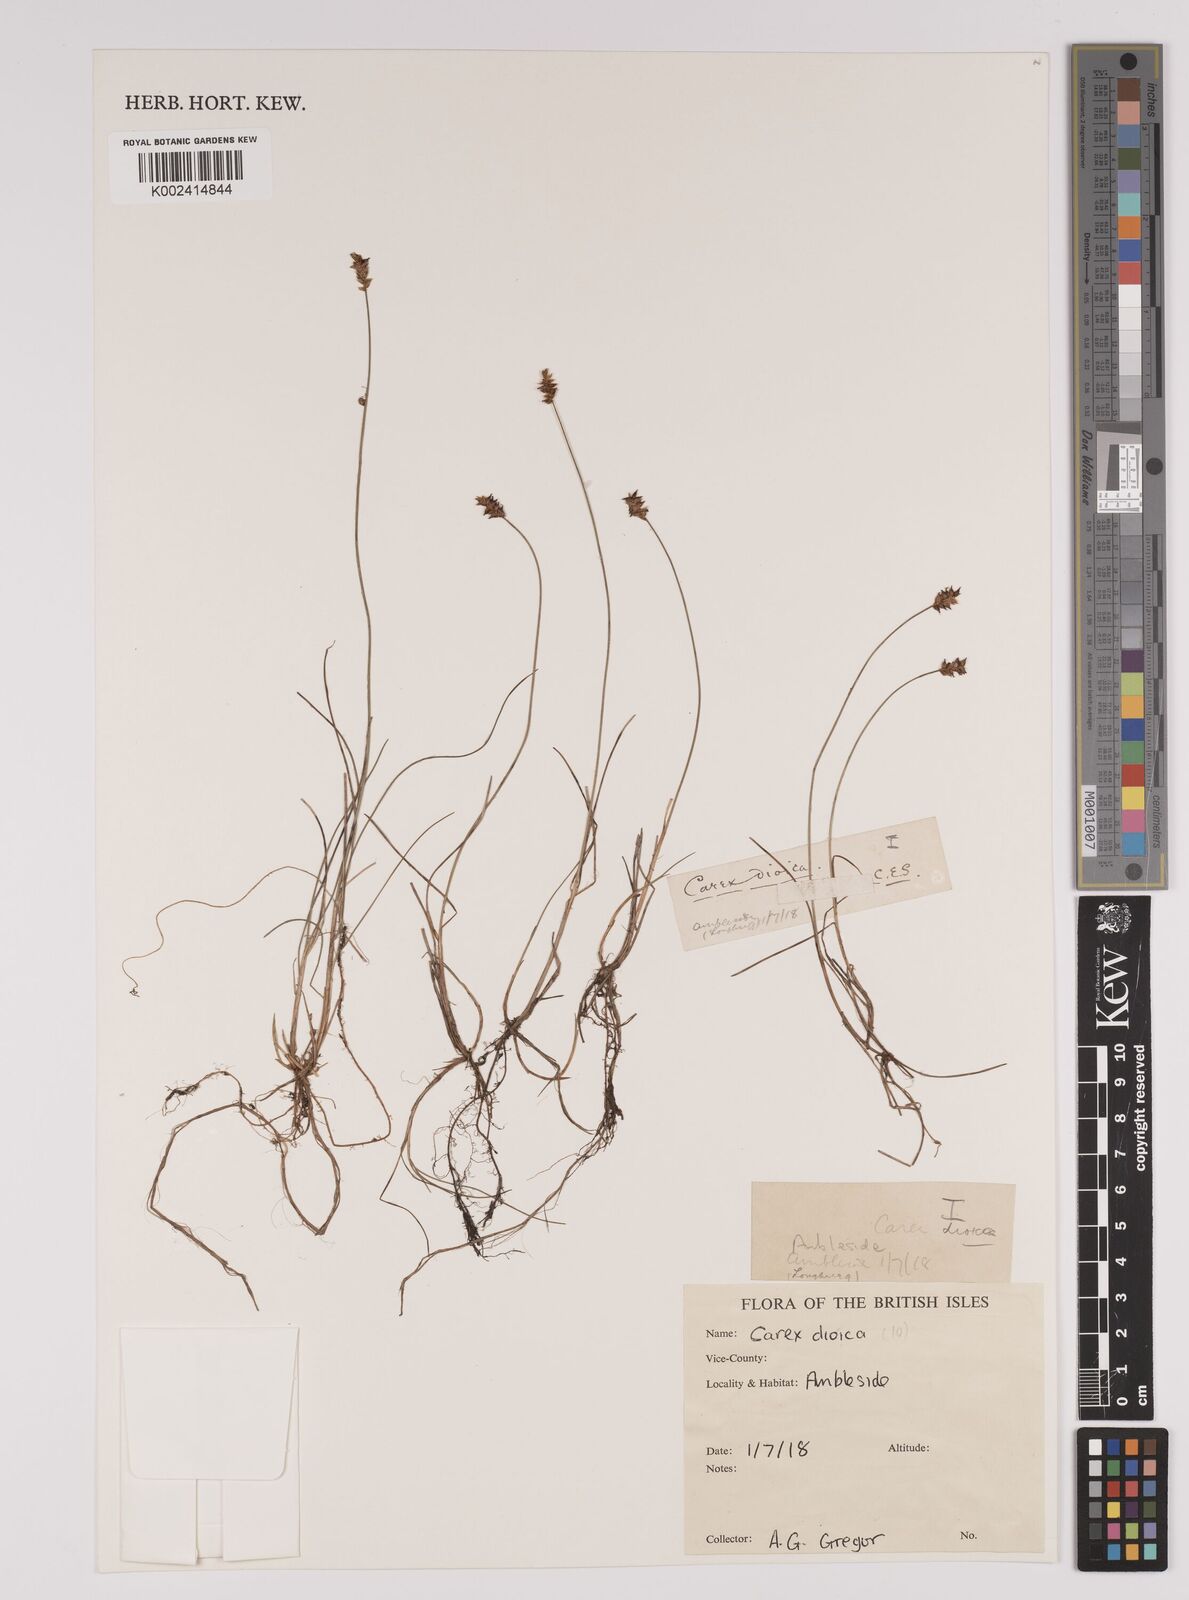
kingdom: Plantae
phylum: Tracheophyta
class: Liliopsida
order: Poales
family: Cyperaceae
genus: Carex
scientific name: Carex dioica
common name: Dioecious sedge
